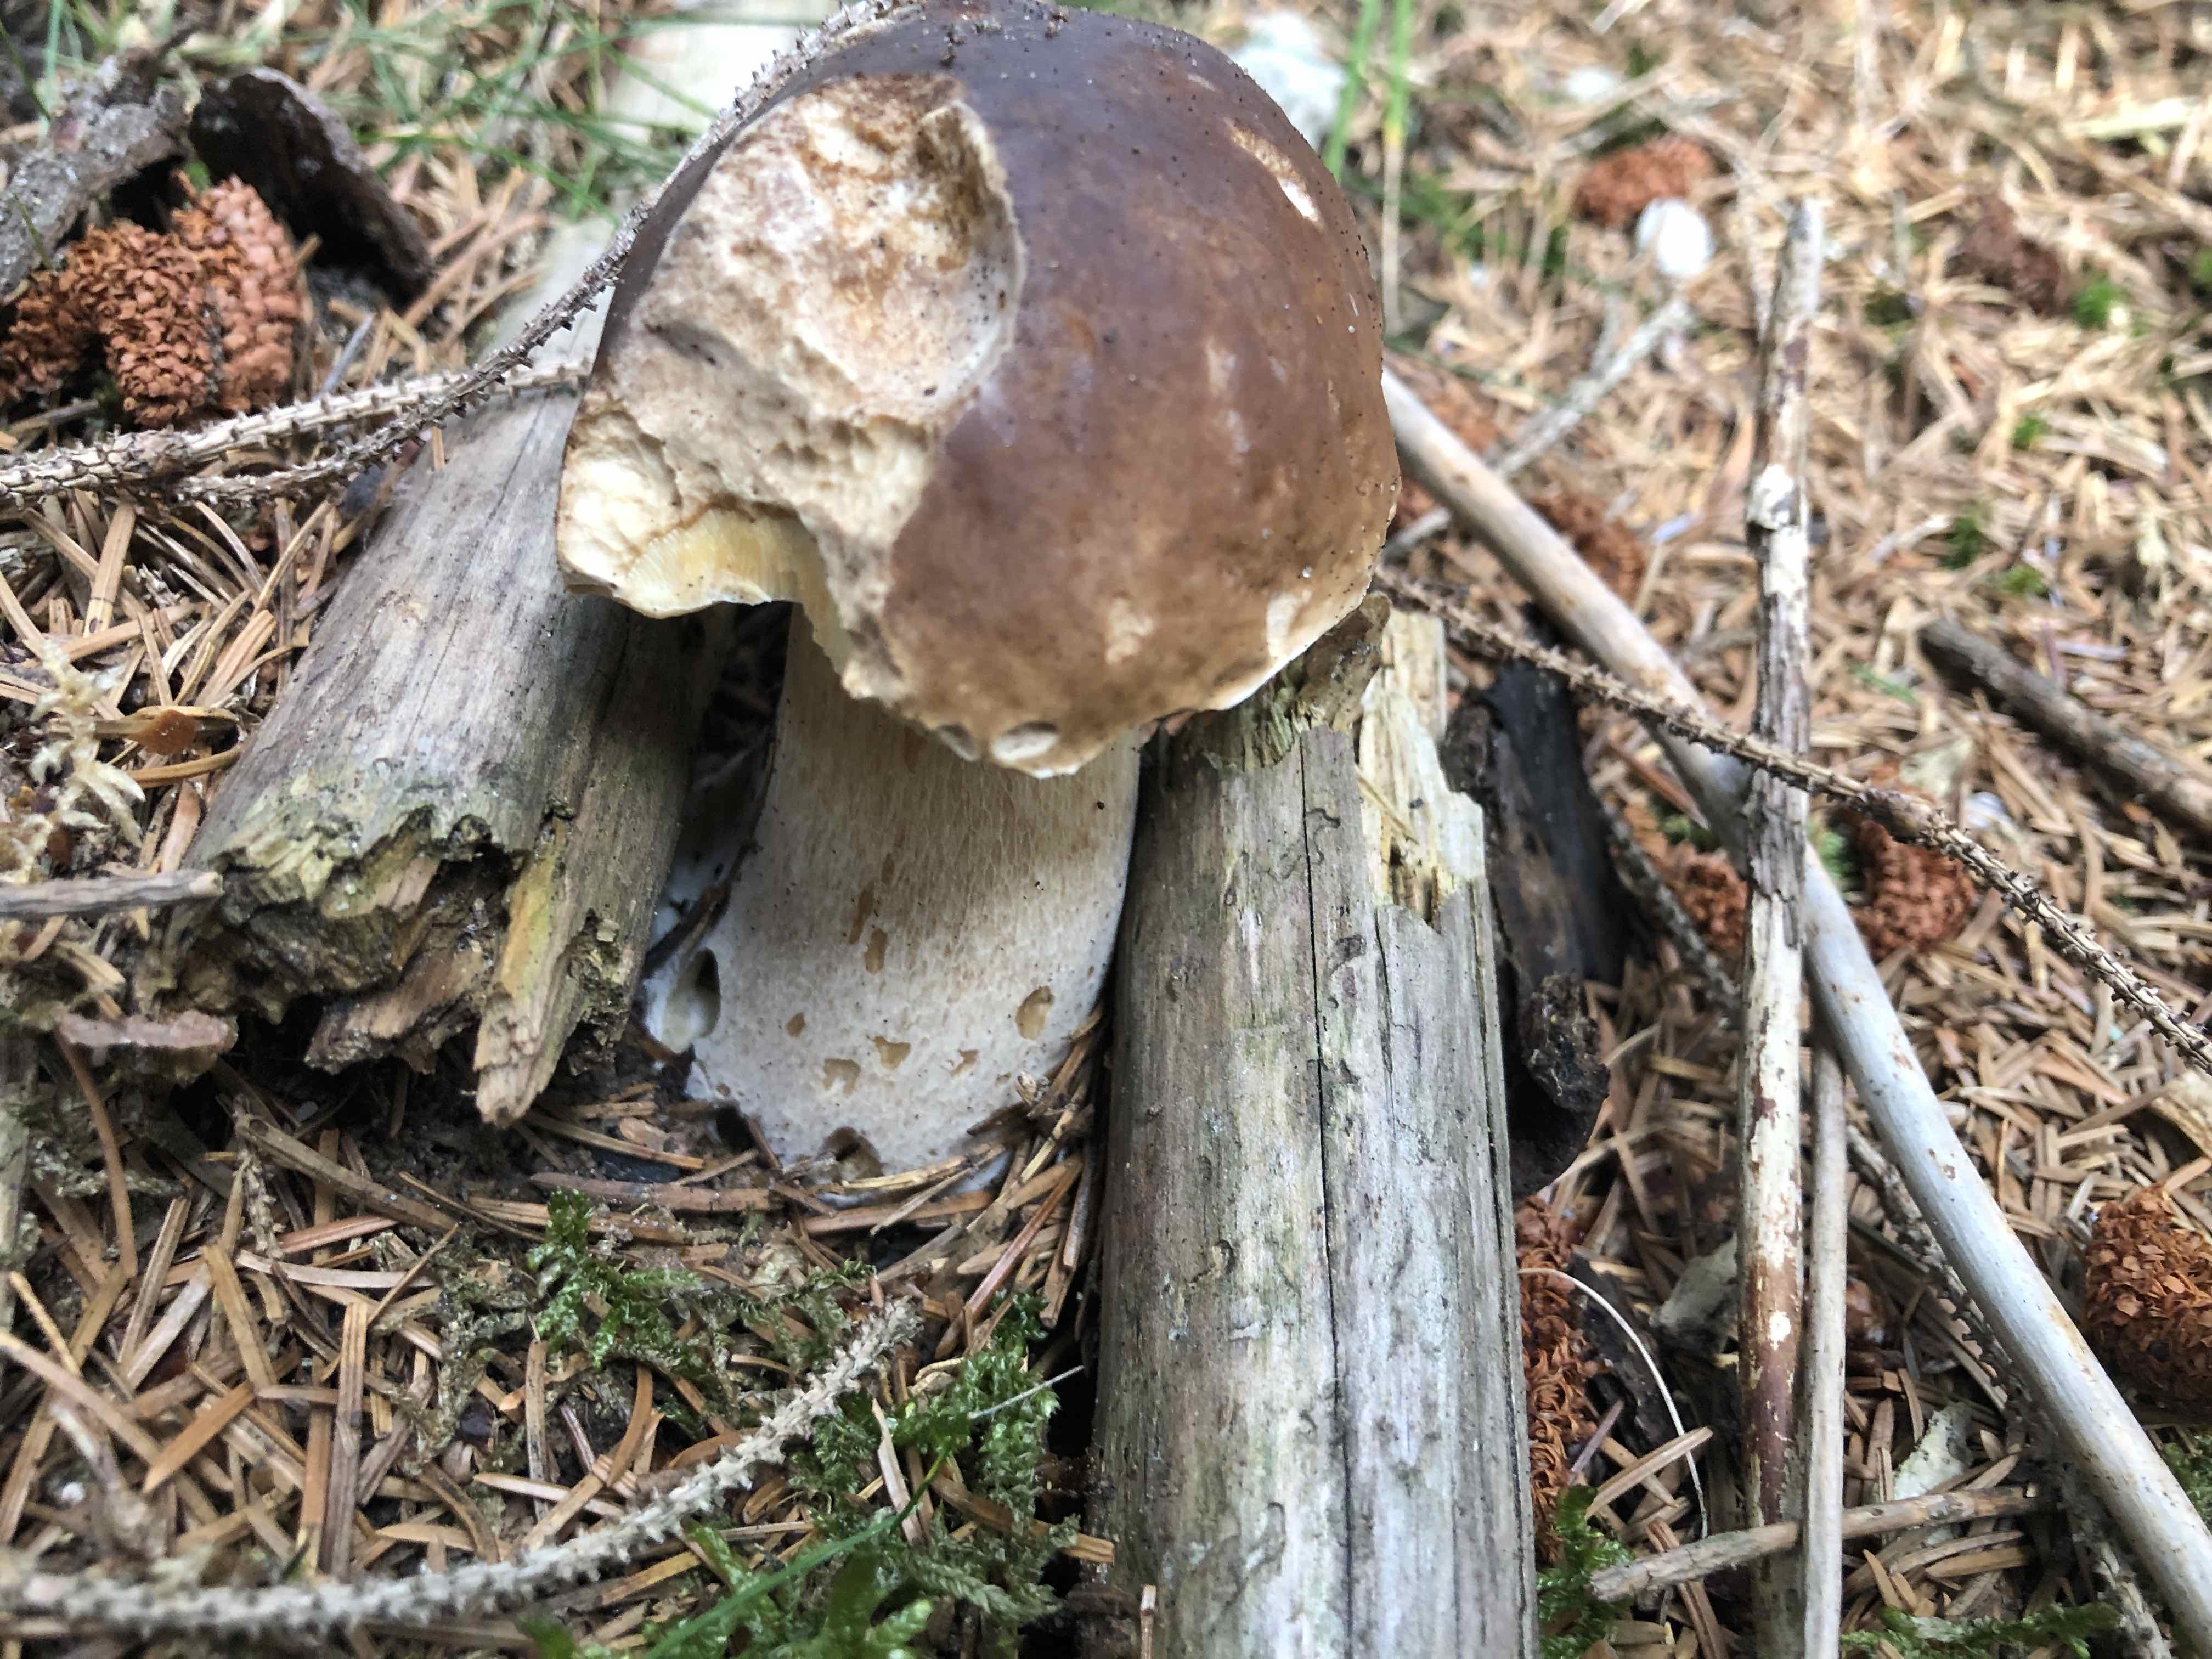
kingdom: Fungi
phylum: Basidiomycota
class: Agaricomycetes
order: Boletales
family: Boletaceae
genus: Boletus
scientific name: Boletus edulis
